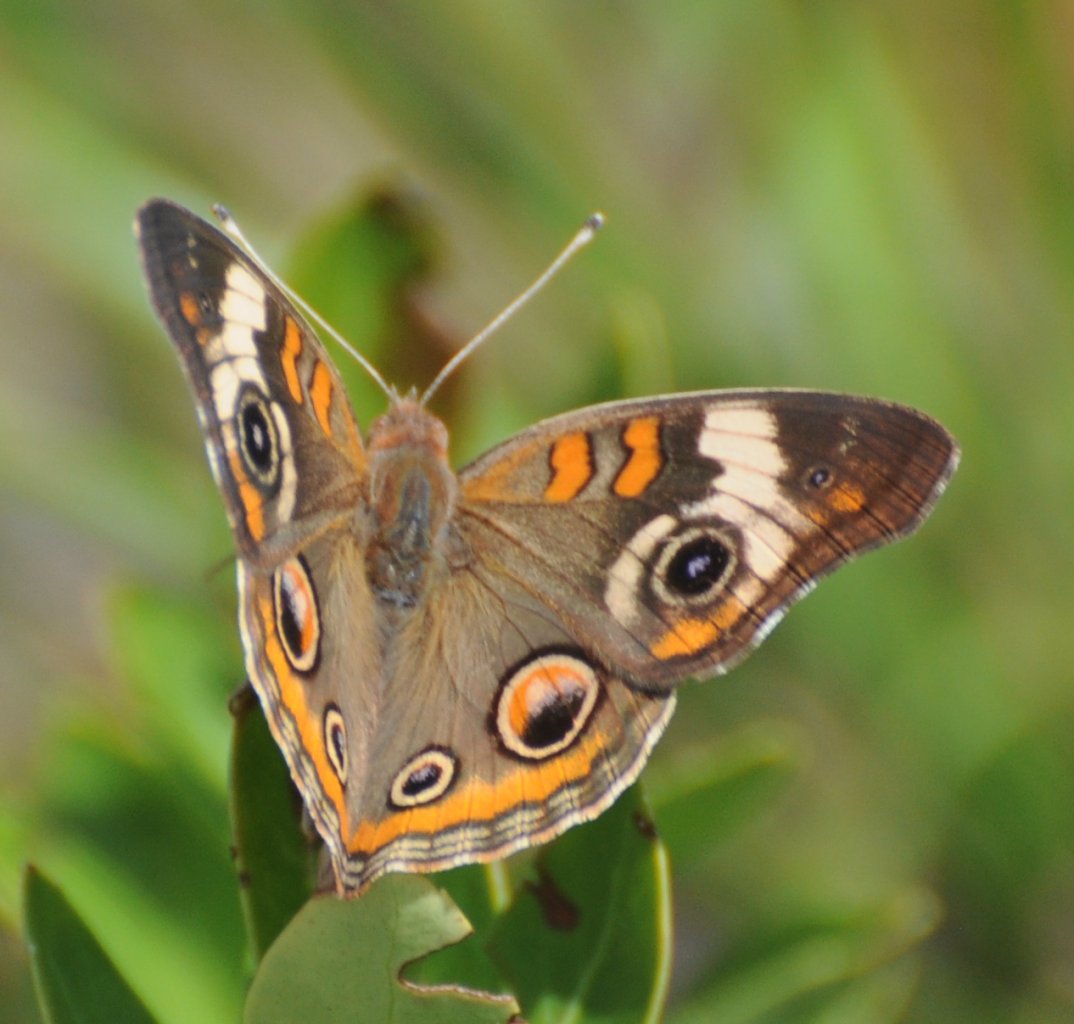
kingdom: Animalia
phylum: Arthropoda
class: Insecta
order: Lepidoptera
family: Nymphalidae
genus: Junonia
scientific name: Junonia coenia
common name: Common Buckeye
